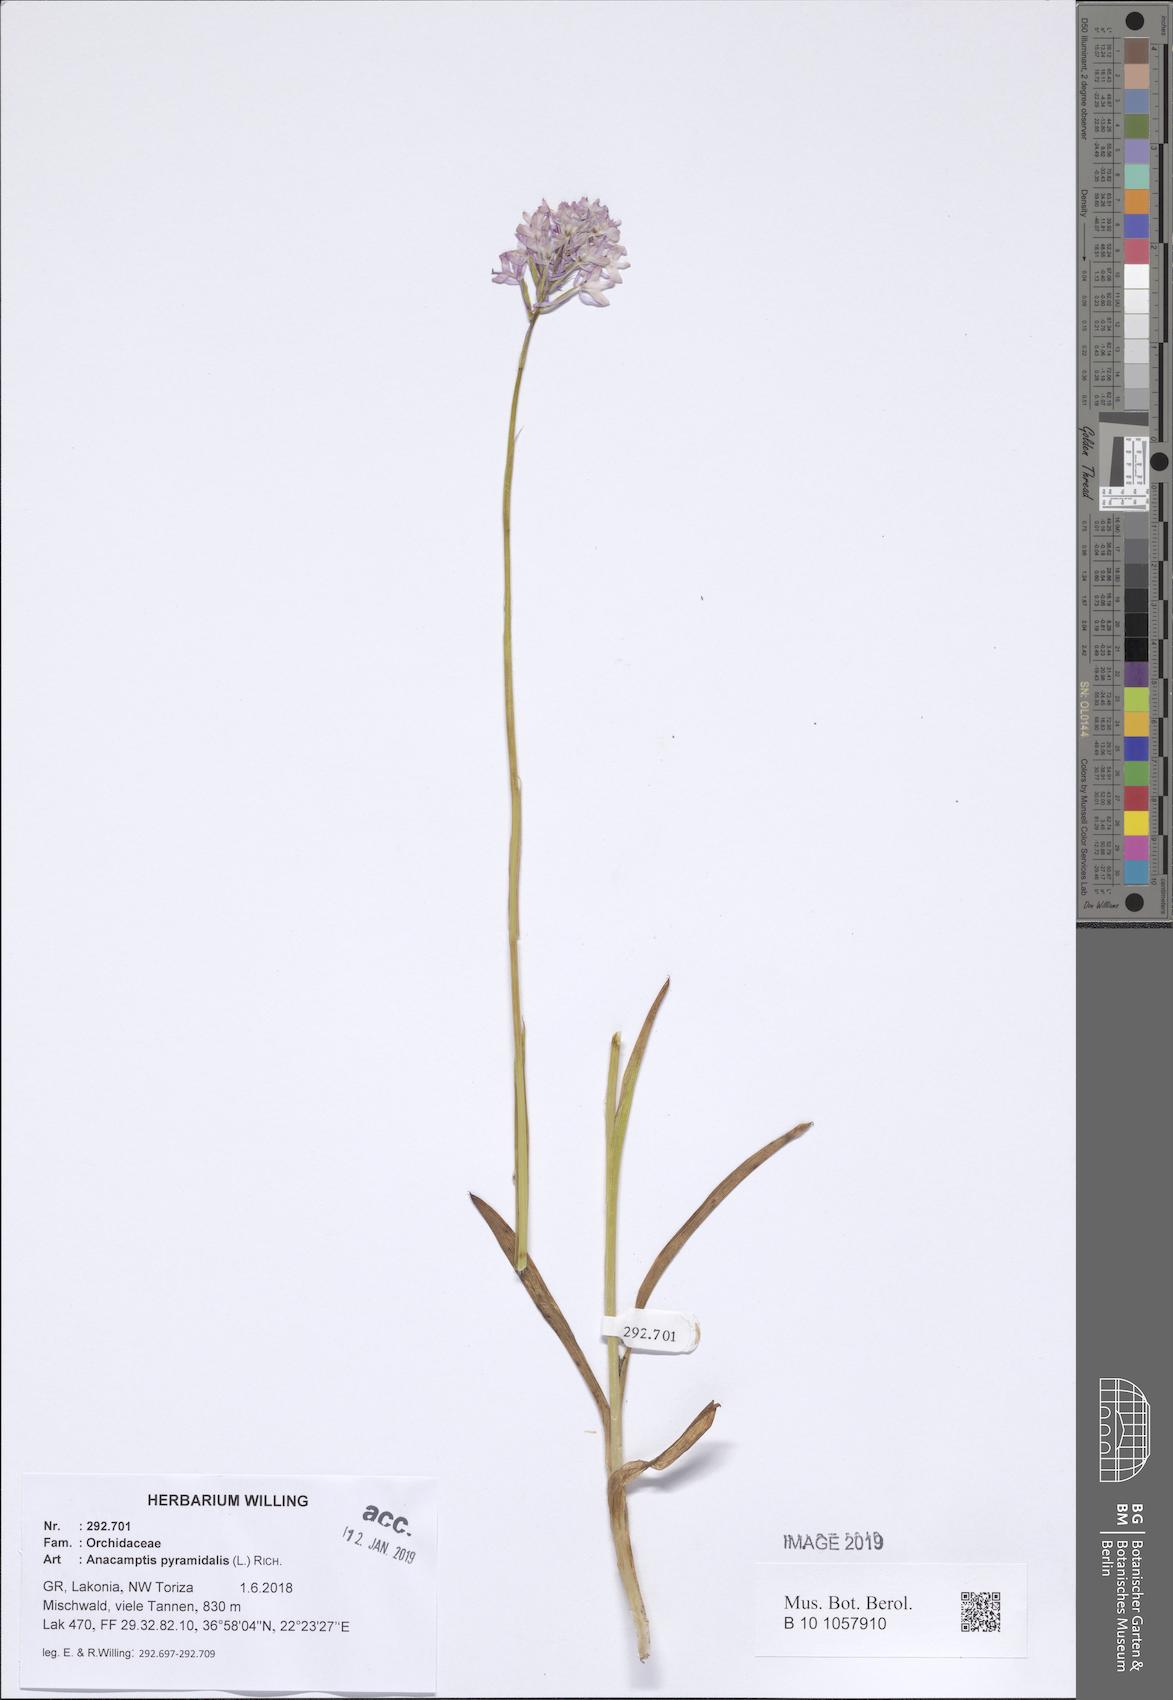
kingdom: Plantae
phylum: Tracheophyta
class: Liliopsida
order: Asparagales
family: Orchidaceae
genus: Anacamptis
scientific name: Anacamptis pyramidalis
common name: Pyramidal orchid
